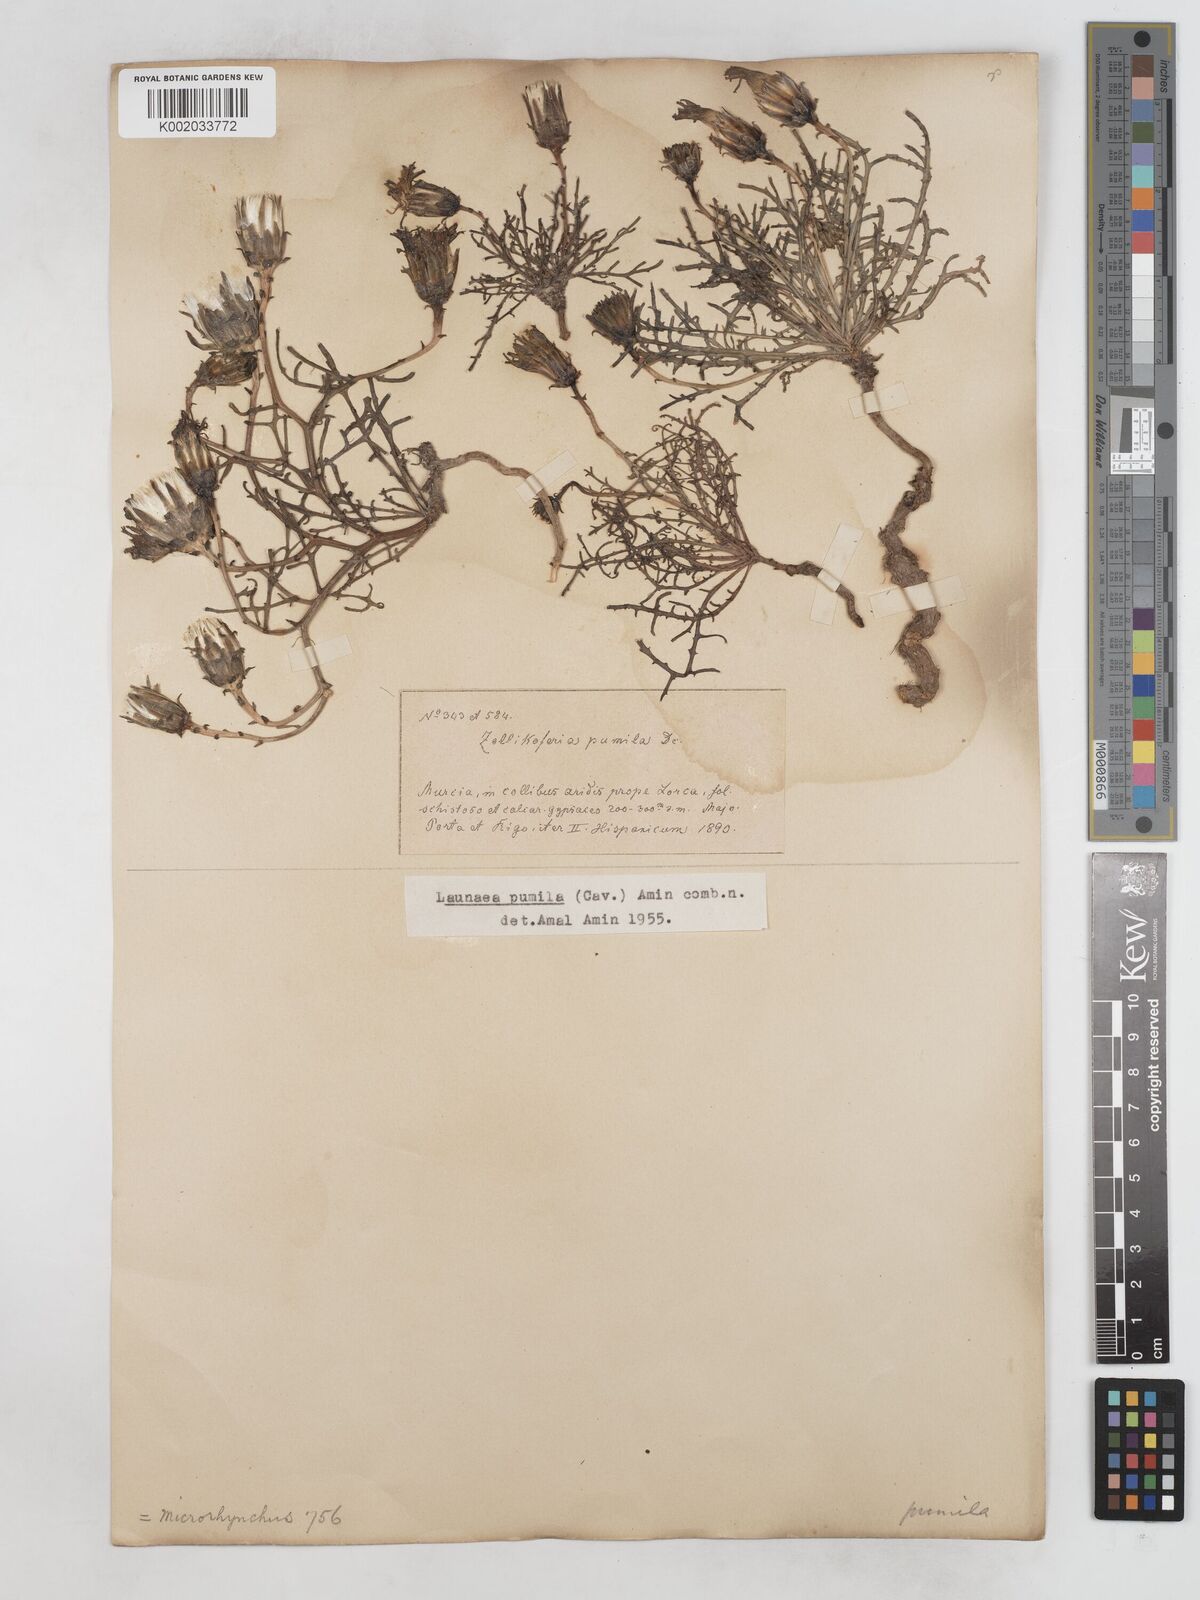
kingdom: Plantae
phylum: Tracheophyta
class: Magnoliopsida
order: Asterales
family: Asteraceae
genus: Launaea
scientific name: Launaea pumila
